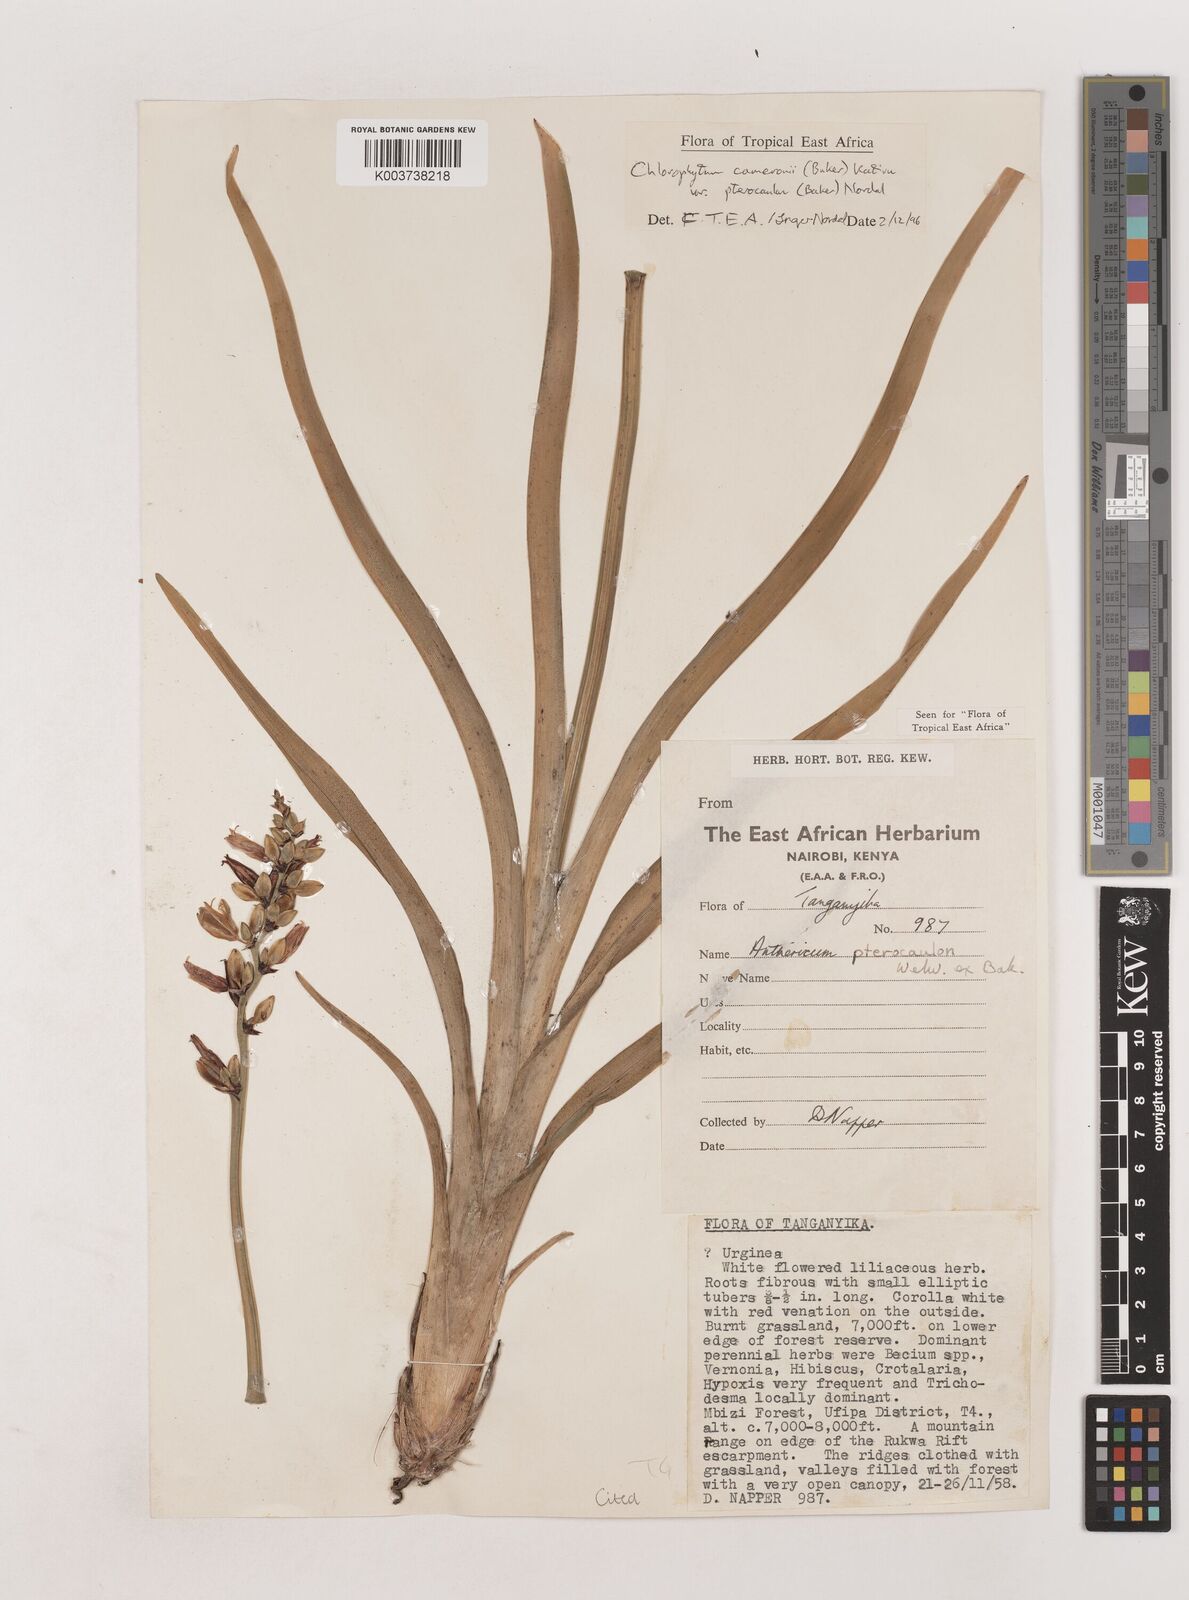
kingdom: Plantae
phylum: Tracheophyta
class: Liliopsida
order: Asparagales
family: Asparagaceae
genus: Chlorophytum
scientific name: Chlorophytum cameronii
